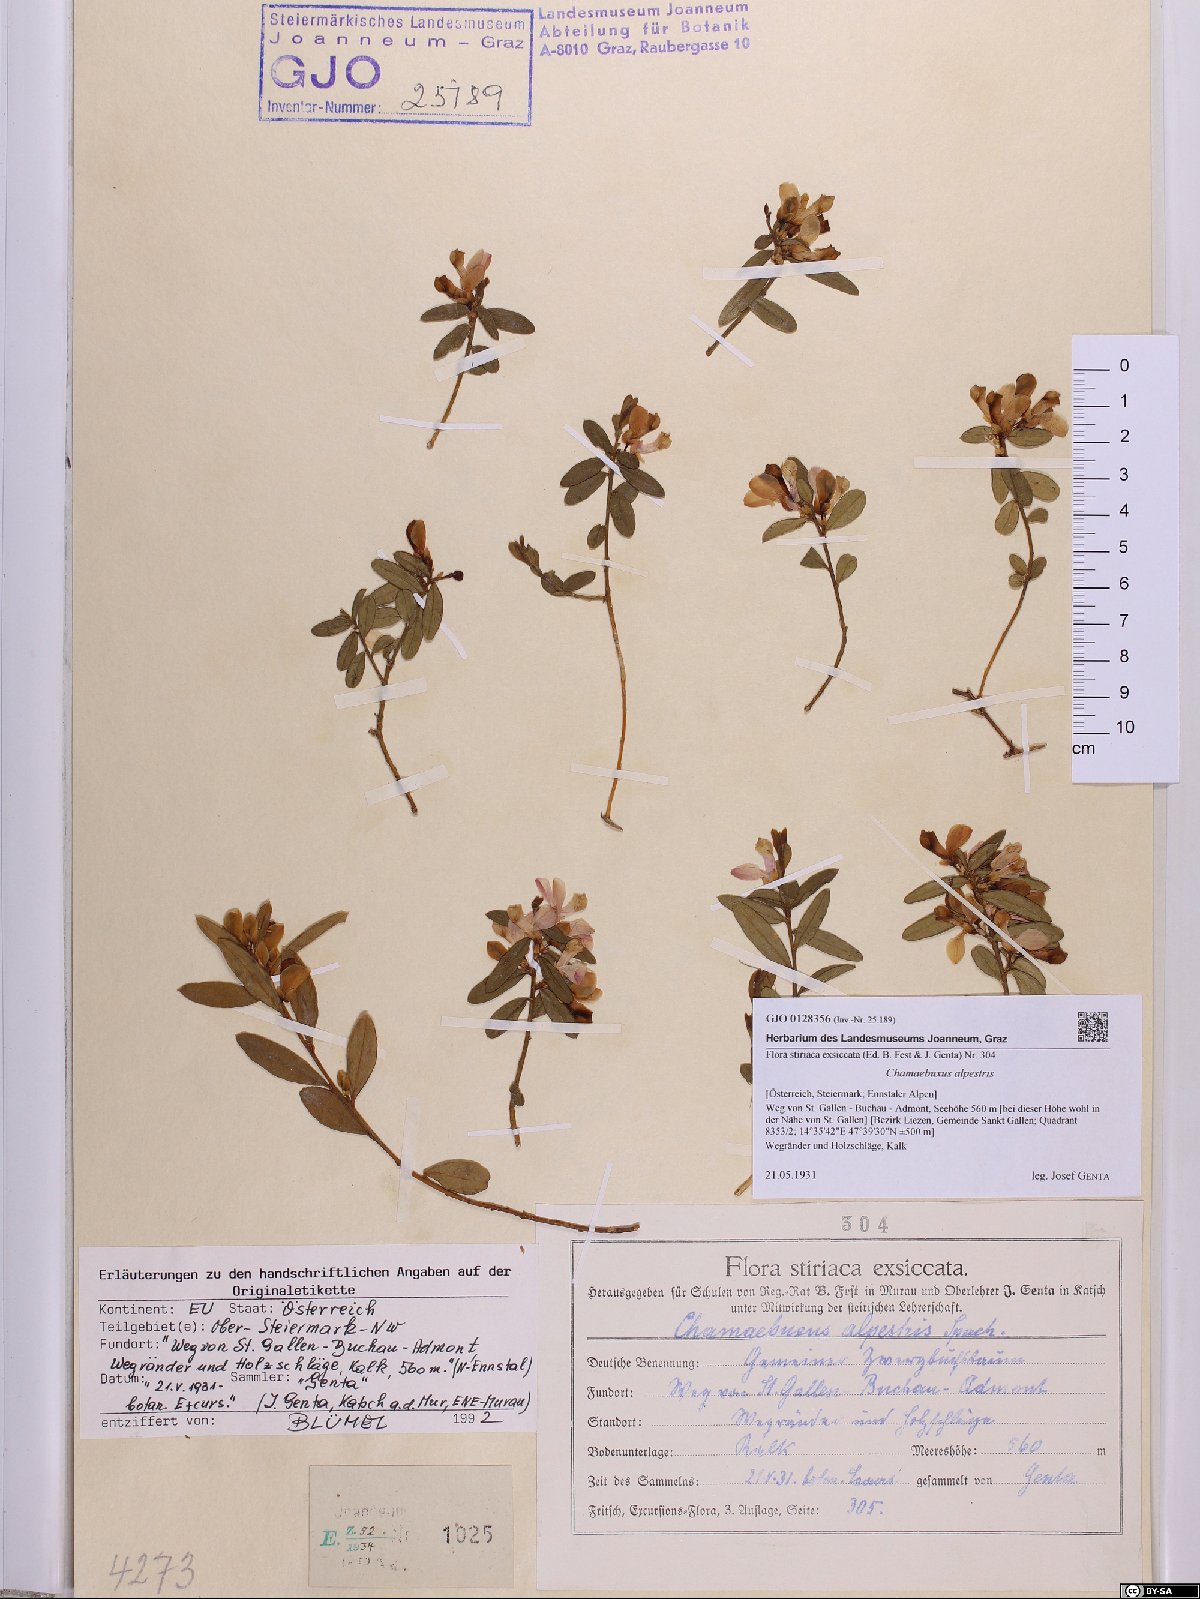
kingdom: Plantae
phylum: Tracheophyta
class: Magnoliopsida
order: Fabales
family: Polygalaceae
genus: Polygaloides
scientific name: Polygaloides chamaebuxus
